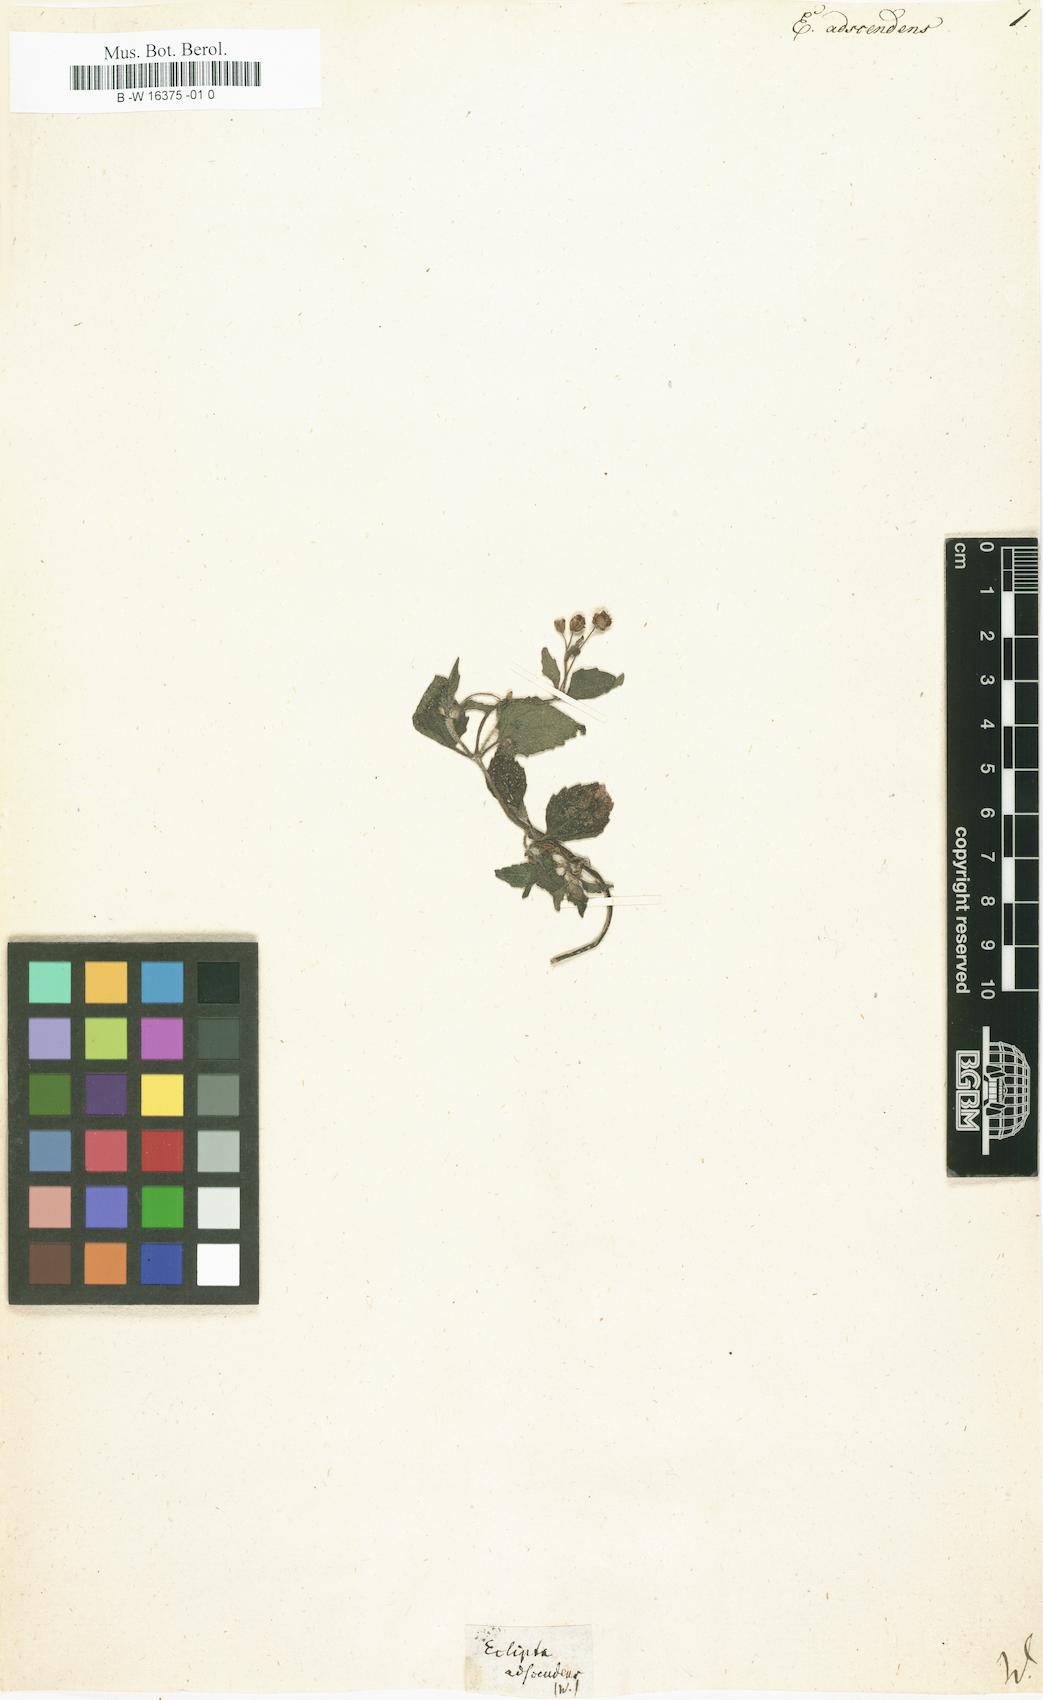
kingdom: Plantae
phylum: Tracheophyta
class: Magnoliopsida
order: Asterales
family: Asteraceae
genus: Eclipta
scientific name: Eclipta
